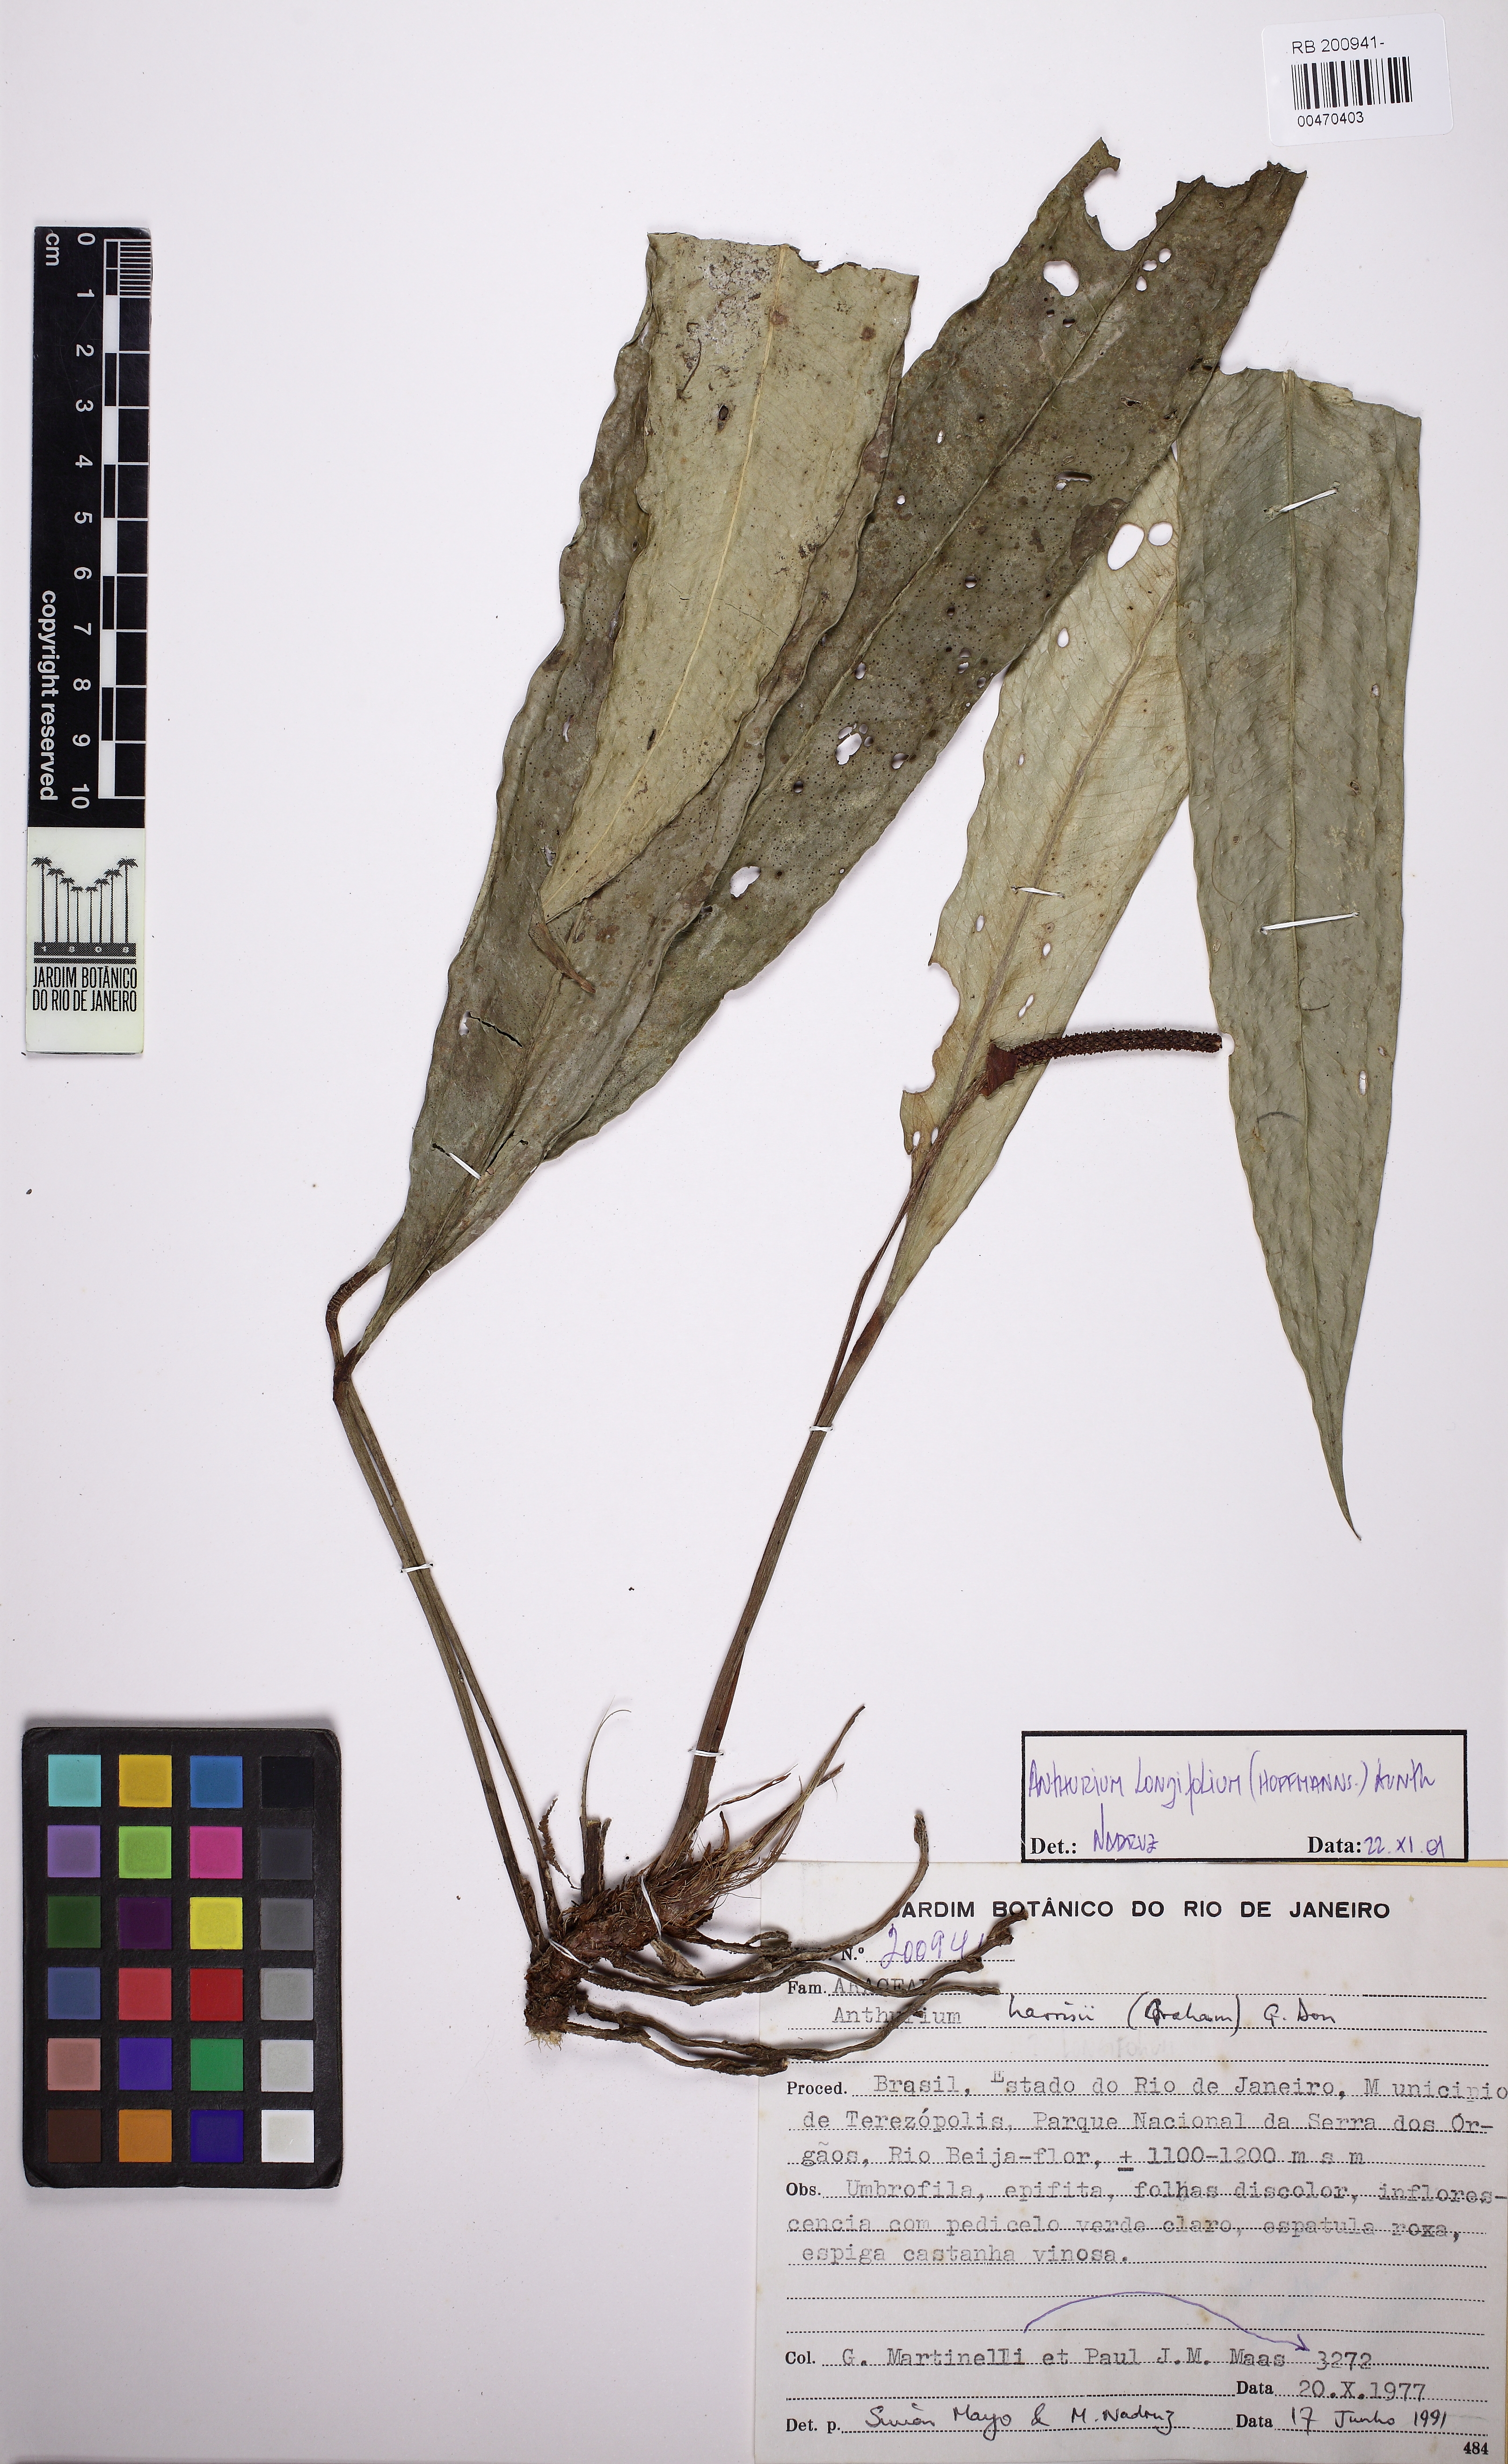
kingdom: Plantae
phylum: Tracheophyta
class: Liliopsida
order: Alismatales
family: Araceae
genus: Anthurium
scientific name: Anthurium longifolium
